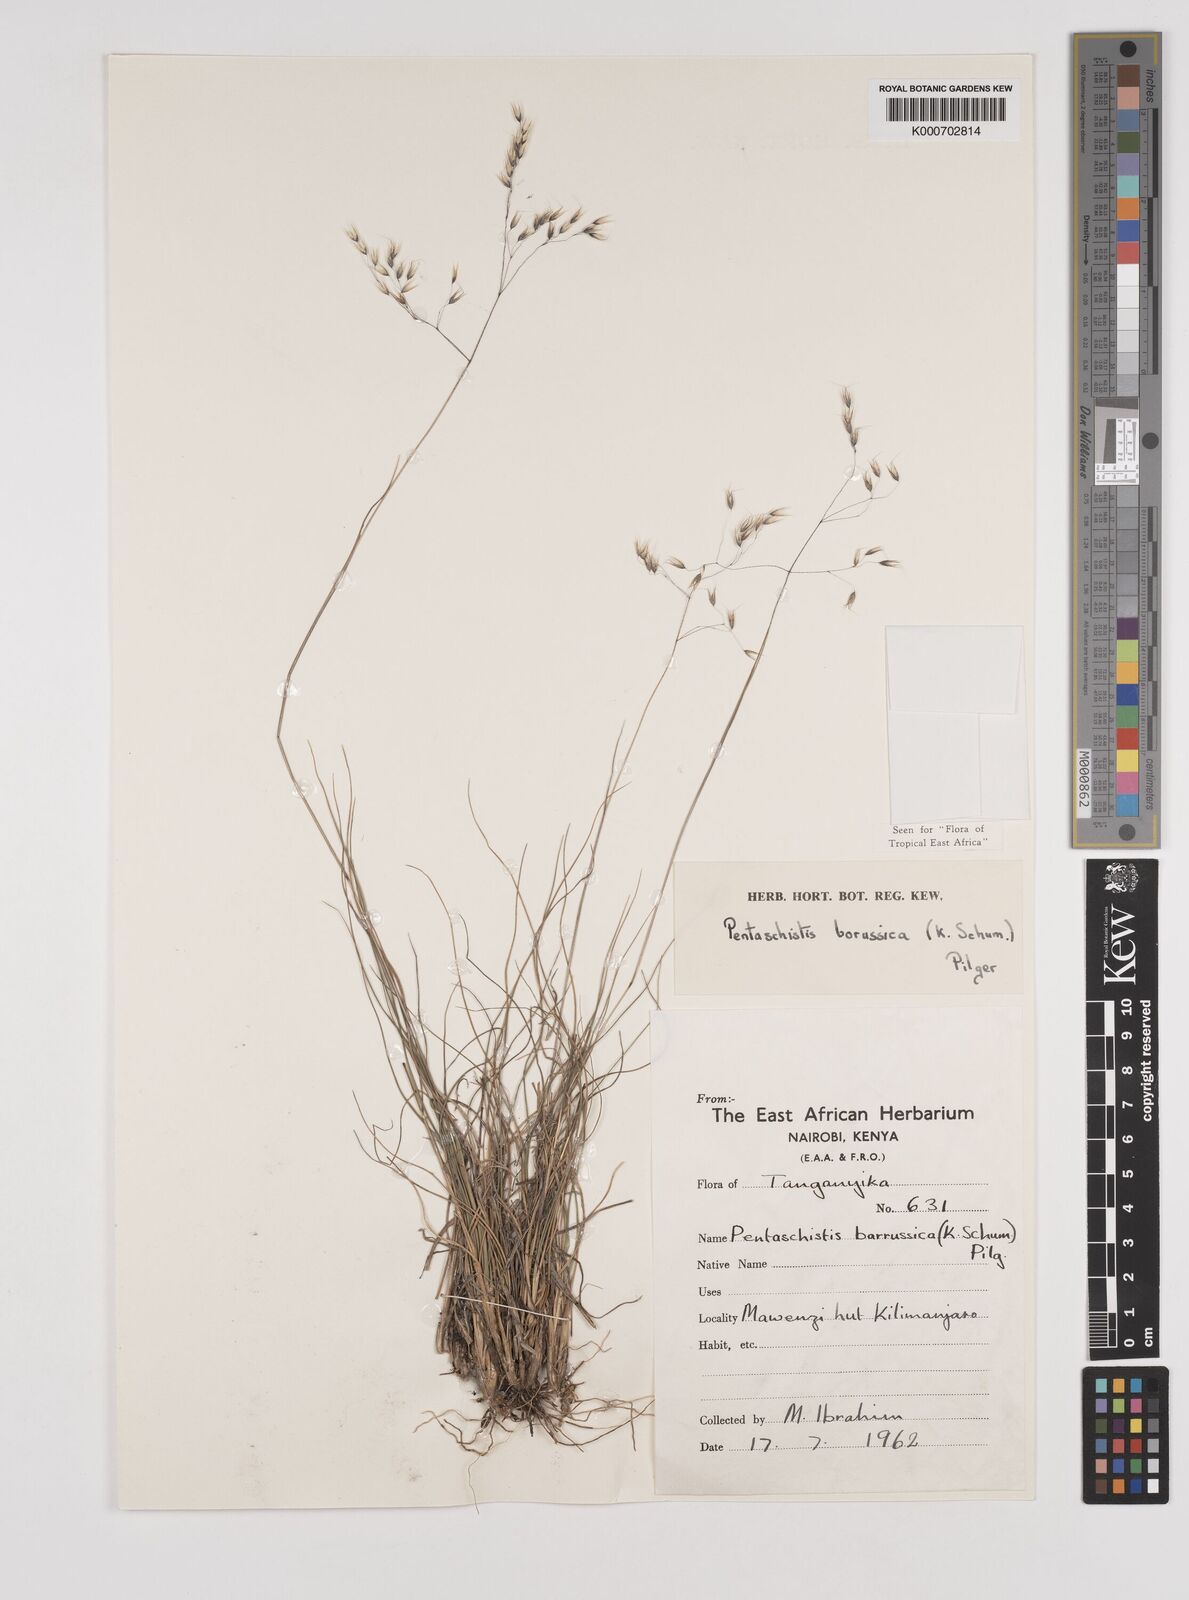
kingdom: Plantae
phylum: Tracheophyta
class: Liliopsida
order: Poales
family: Poaceae
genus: Pentameris
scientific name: Pentameris borussica
